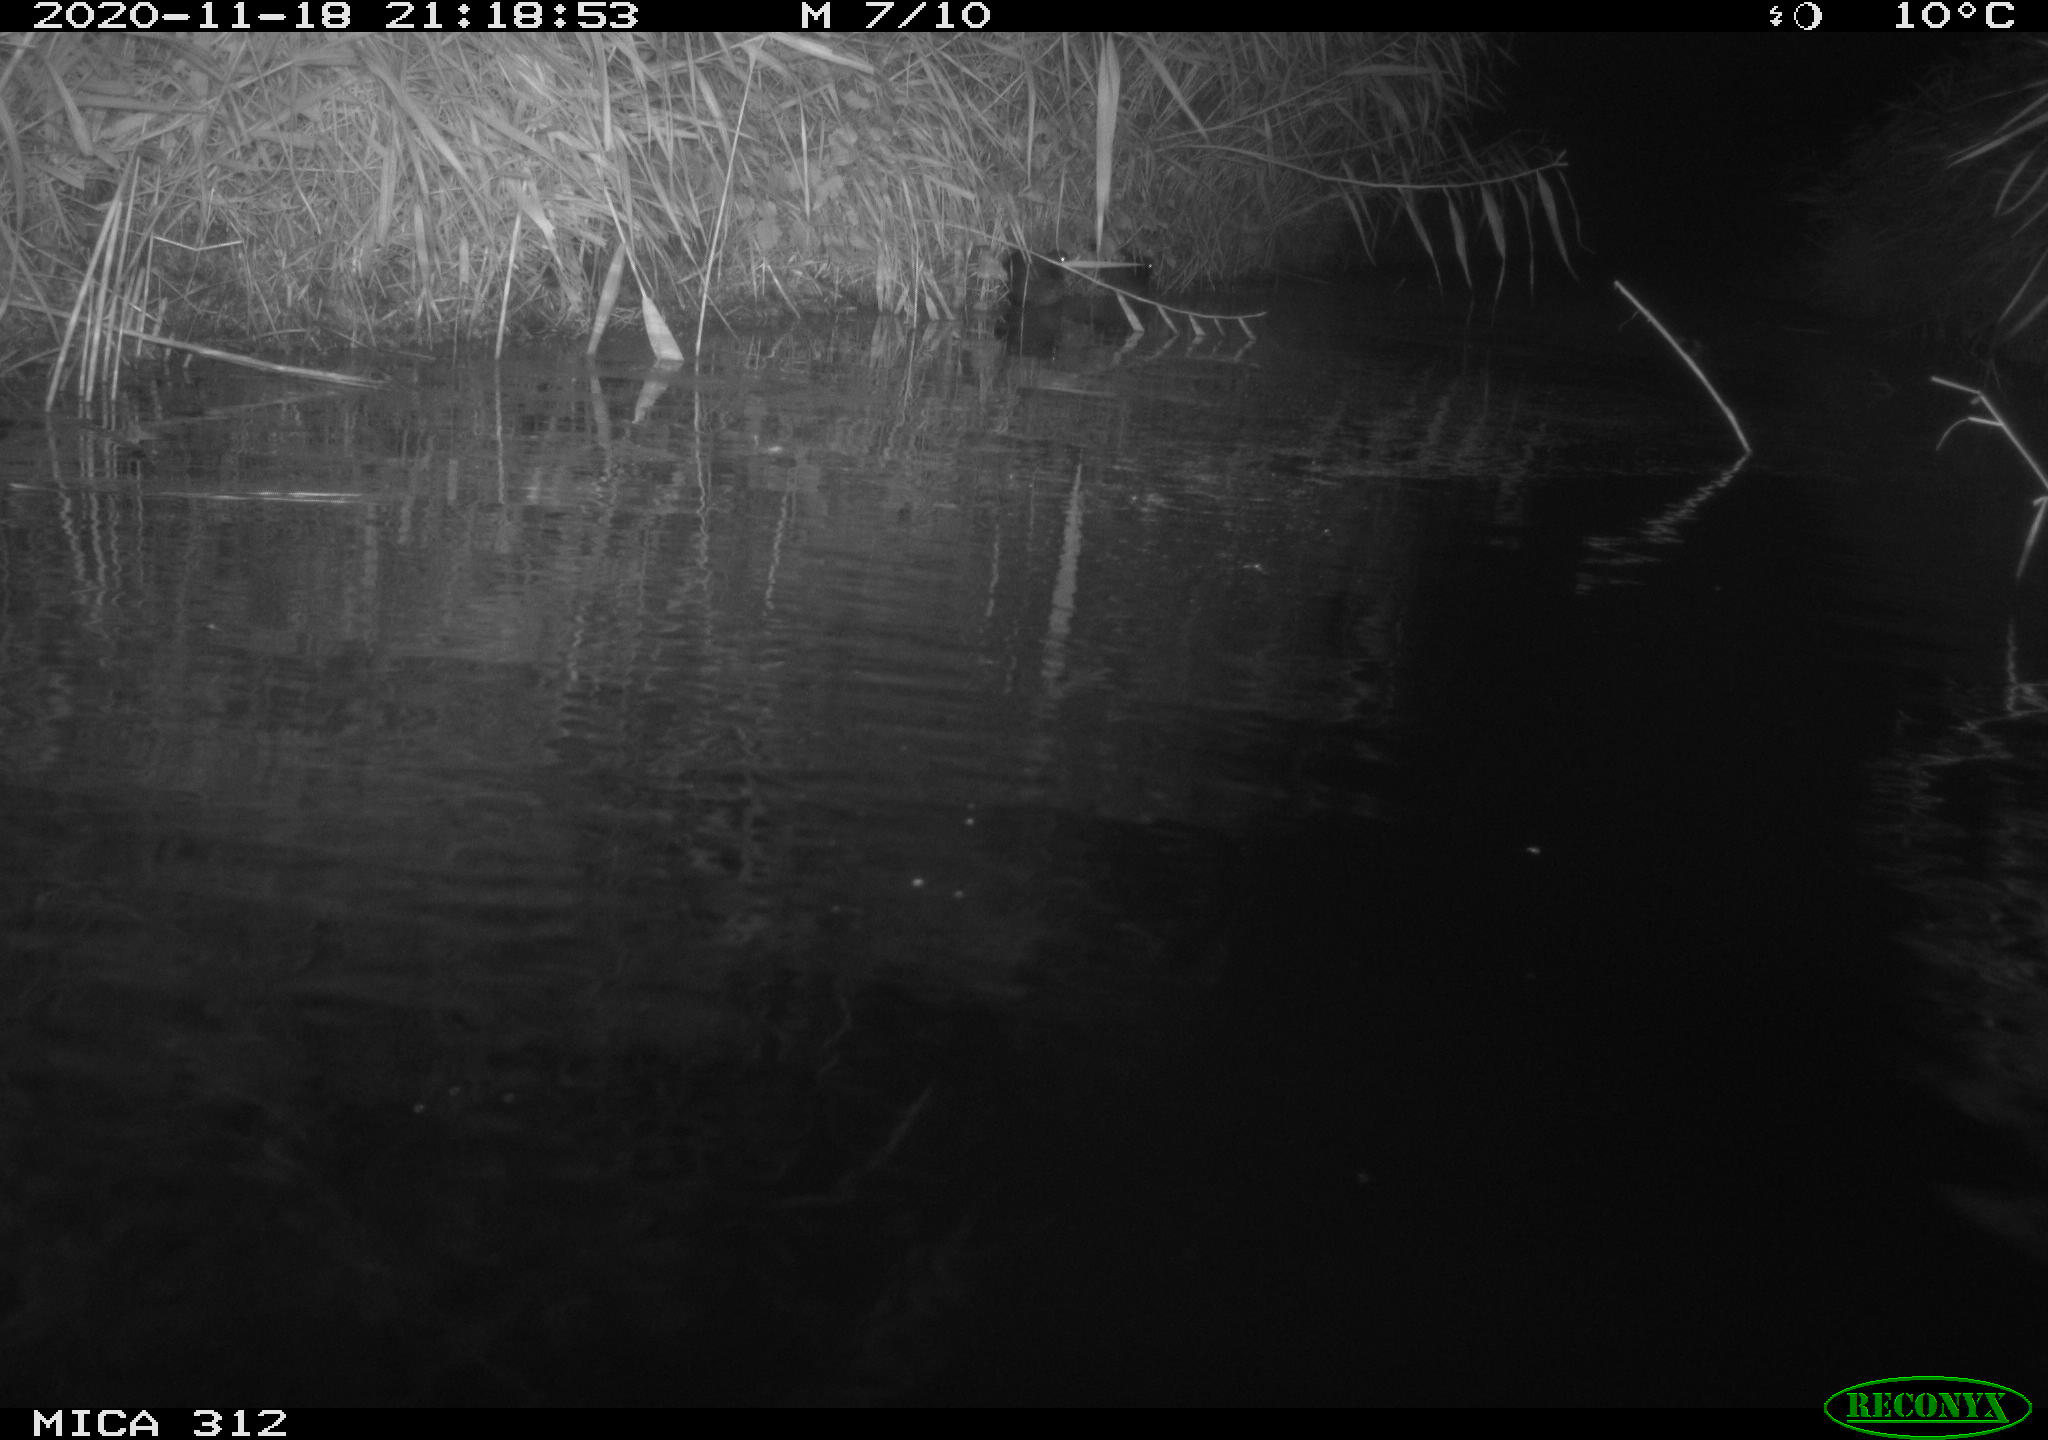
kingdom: Animalia
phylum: Chordata
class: Mammalia
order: Rodentia
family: Muridae
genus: Rattus
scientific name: Rattus norvegicus
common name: Brown rat
